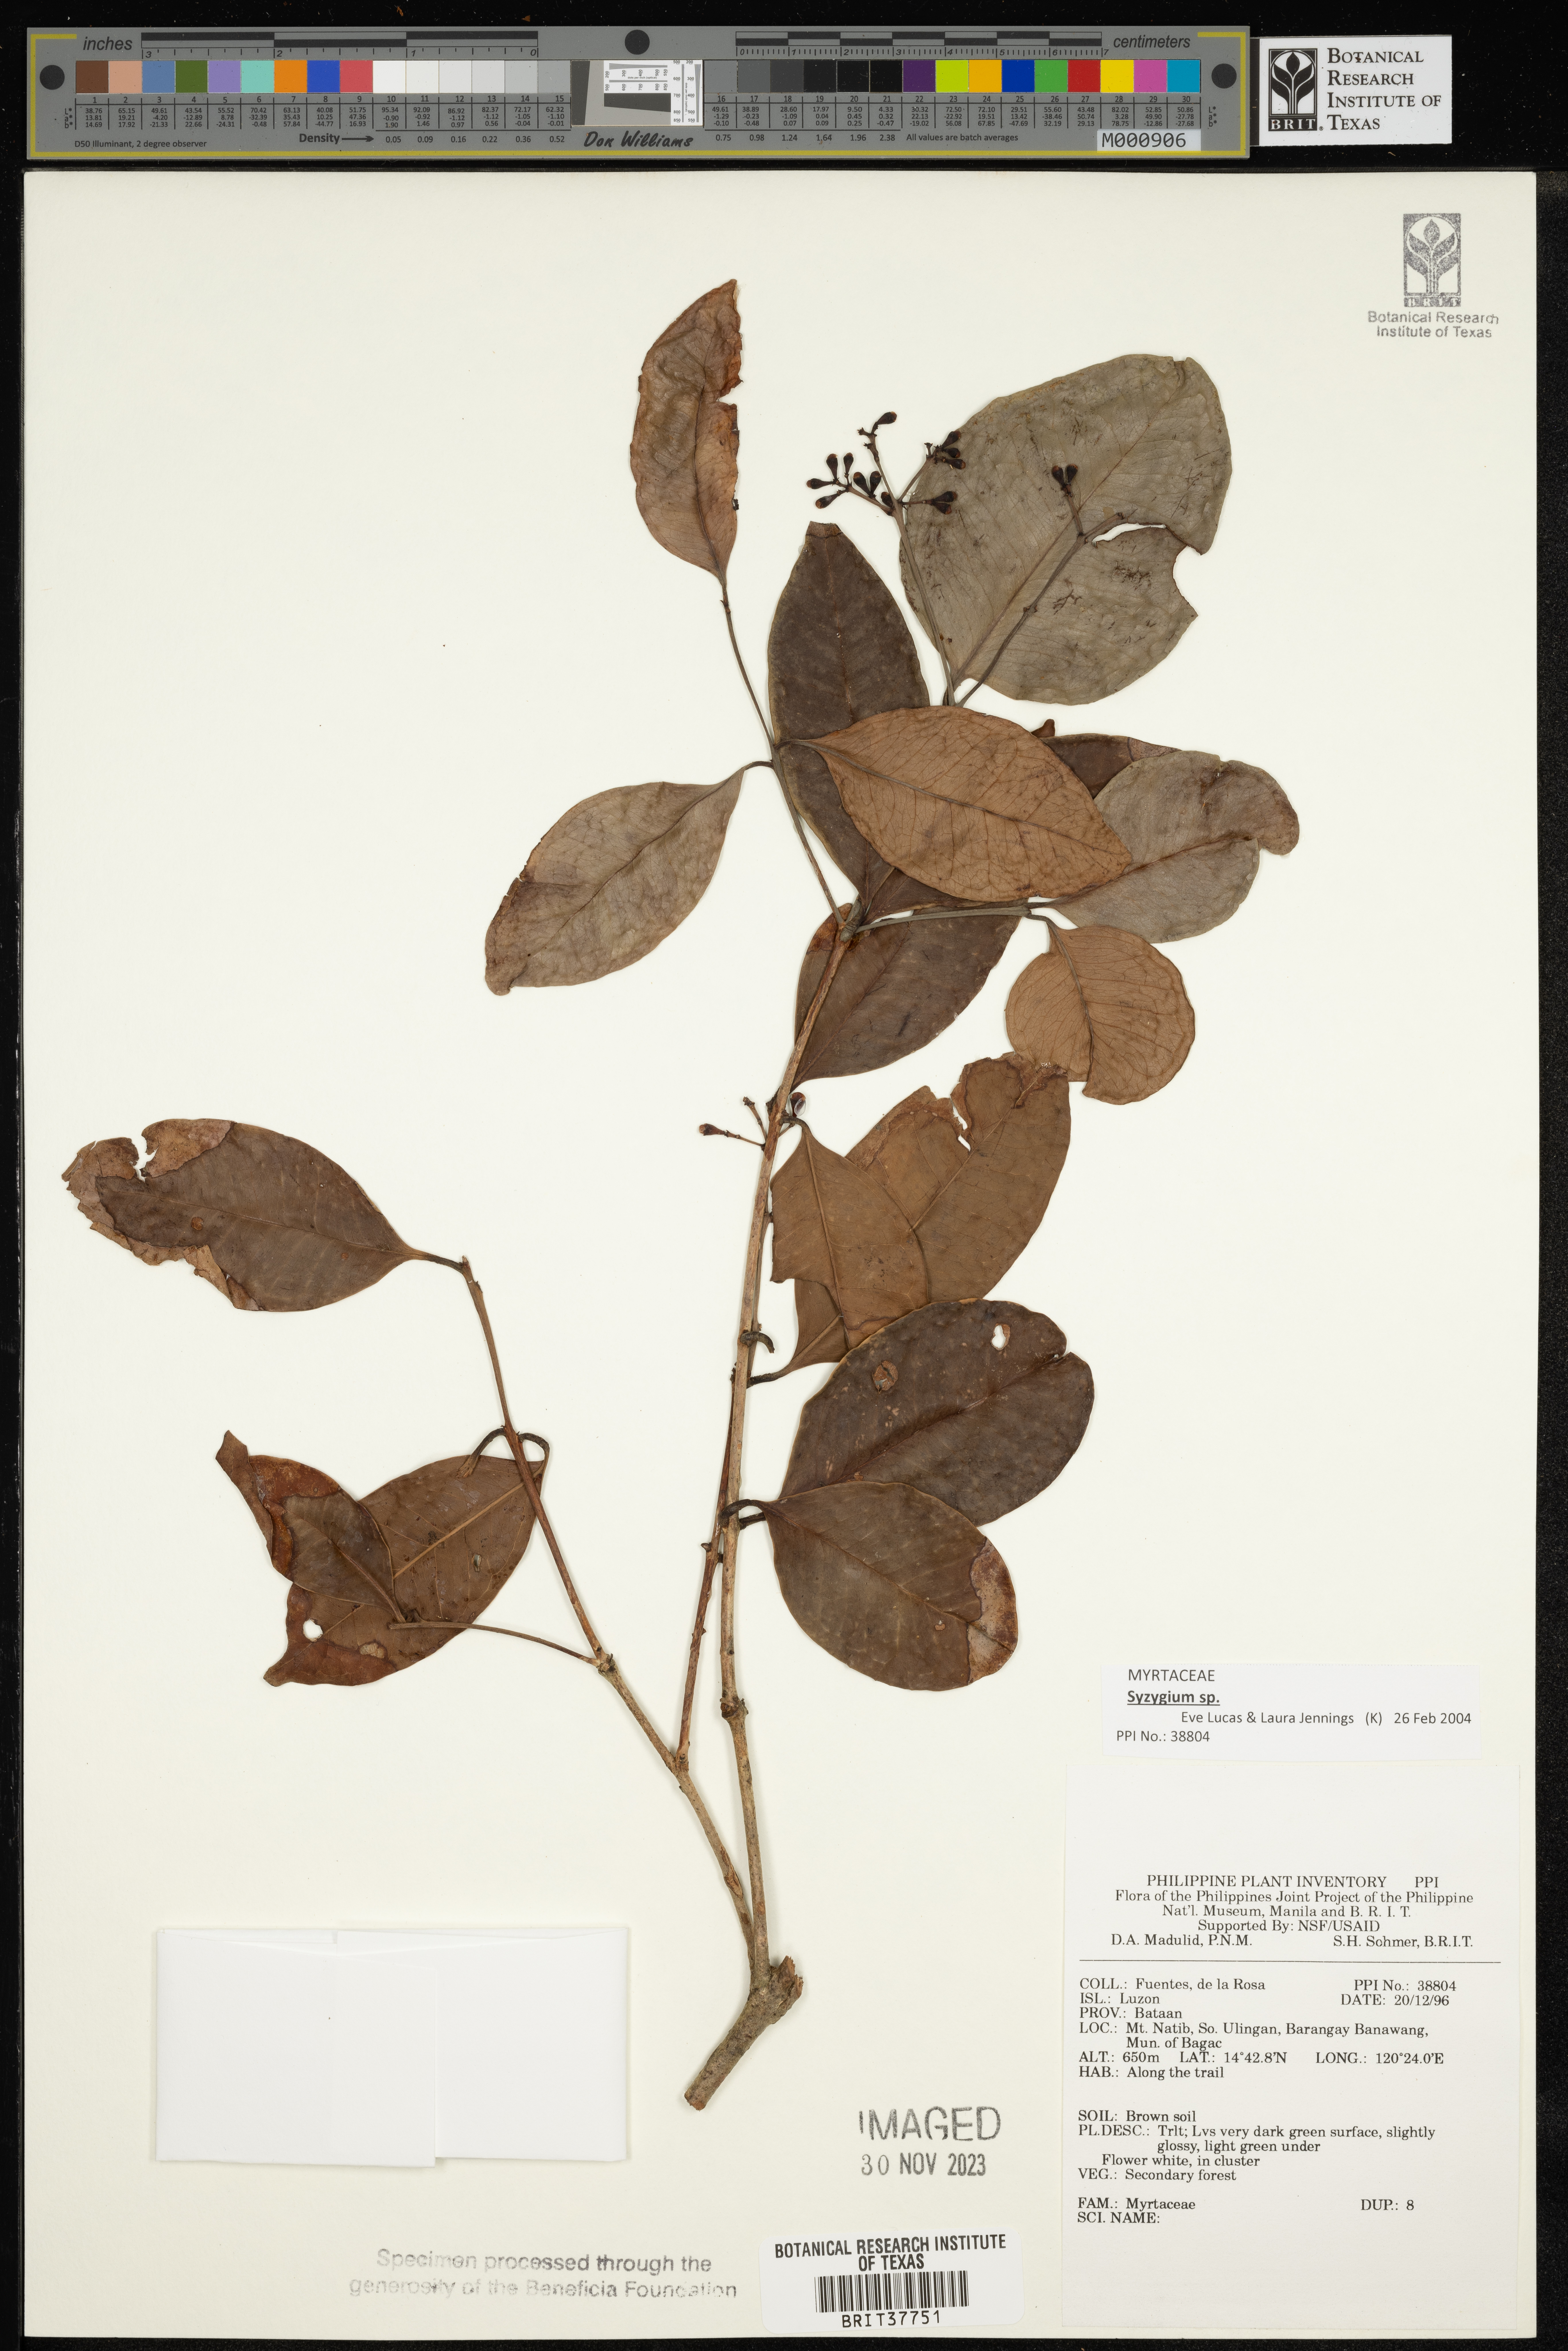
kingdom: Plantae
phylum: Tracheophyta
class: Magnoliopsida
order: Myrtales
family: Myrtaceae
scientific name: Myrtaceae
